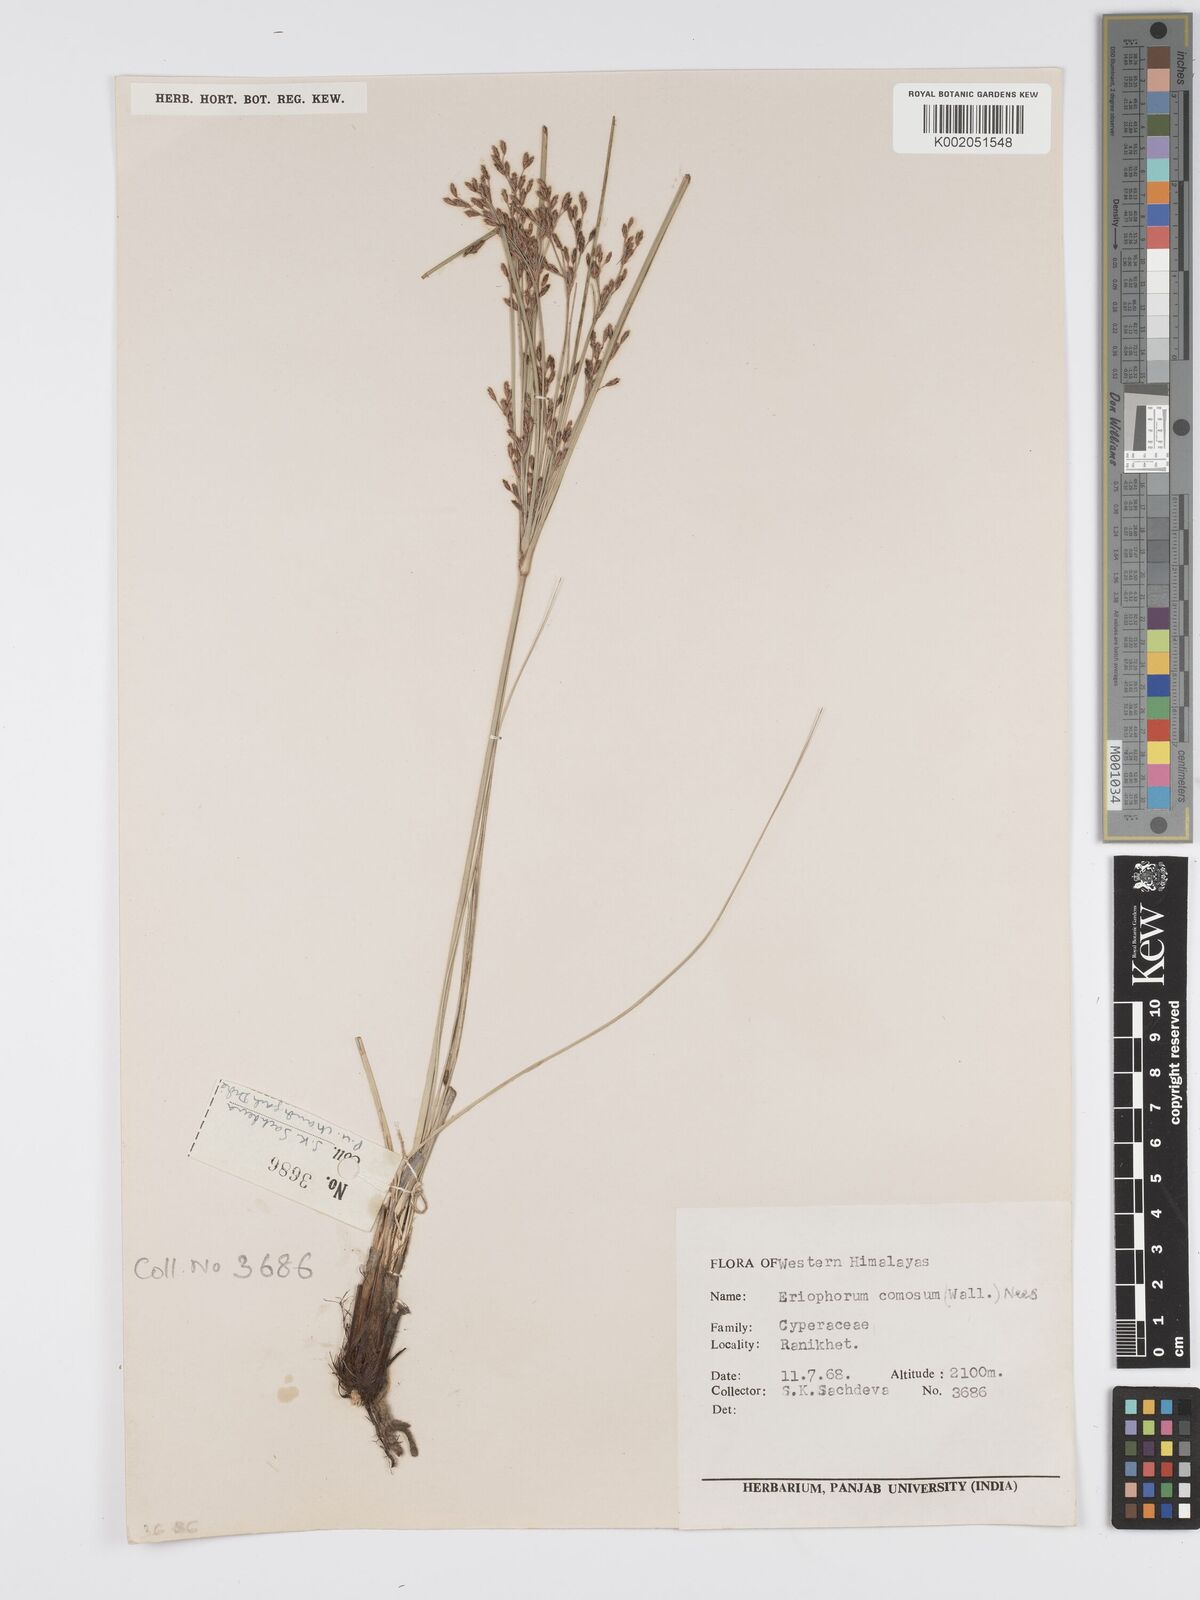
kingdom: Plantae
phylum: Tracheophyta
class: Liliopsida
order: Poales
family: Cyperaceae
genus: Erioscirpus
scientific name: Erioscirpus comosus
